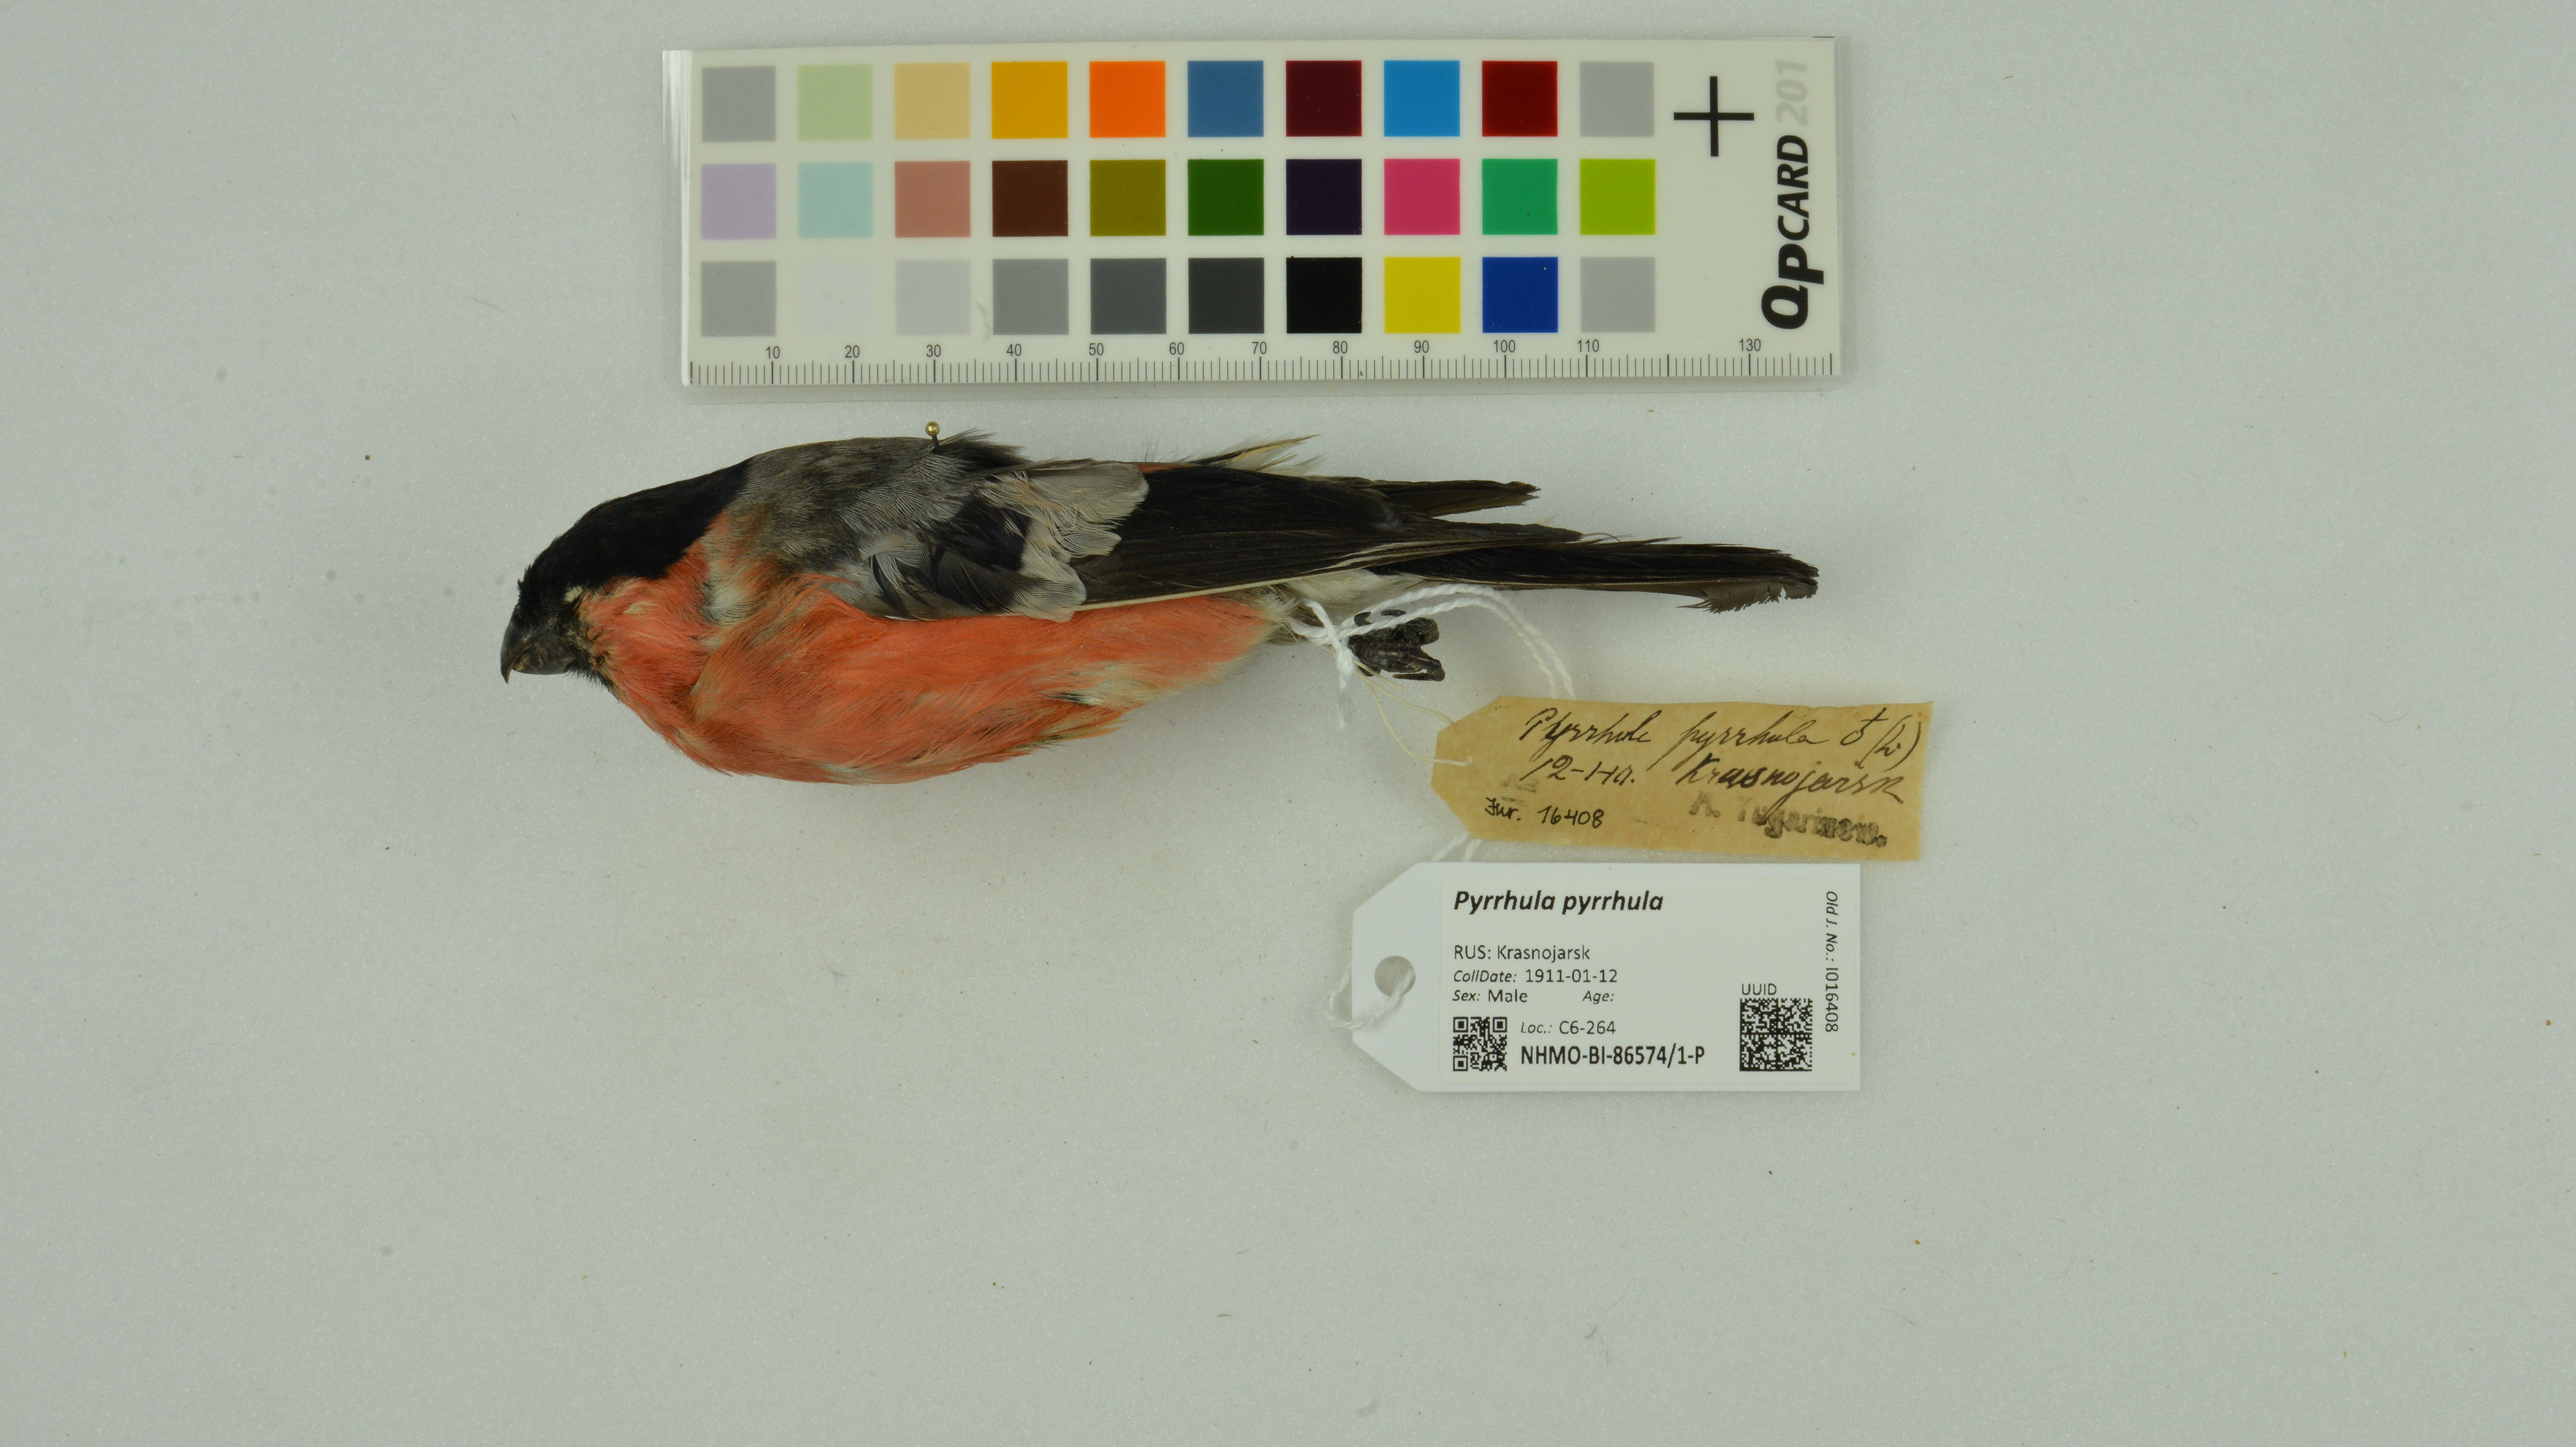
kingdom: Animalia
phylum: Chordata
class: Aves
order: Passeriformes
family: Fringillidae
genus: Pyrrhula
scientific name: Pyrrhula pyrrhula
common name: Eurasian bullfinch
